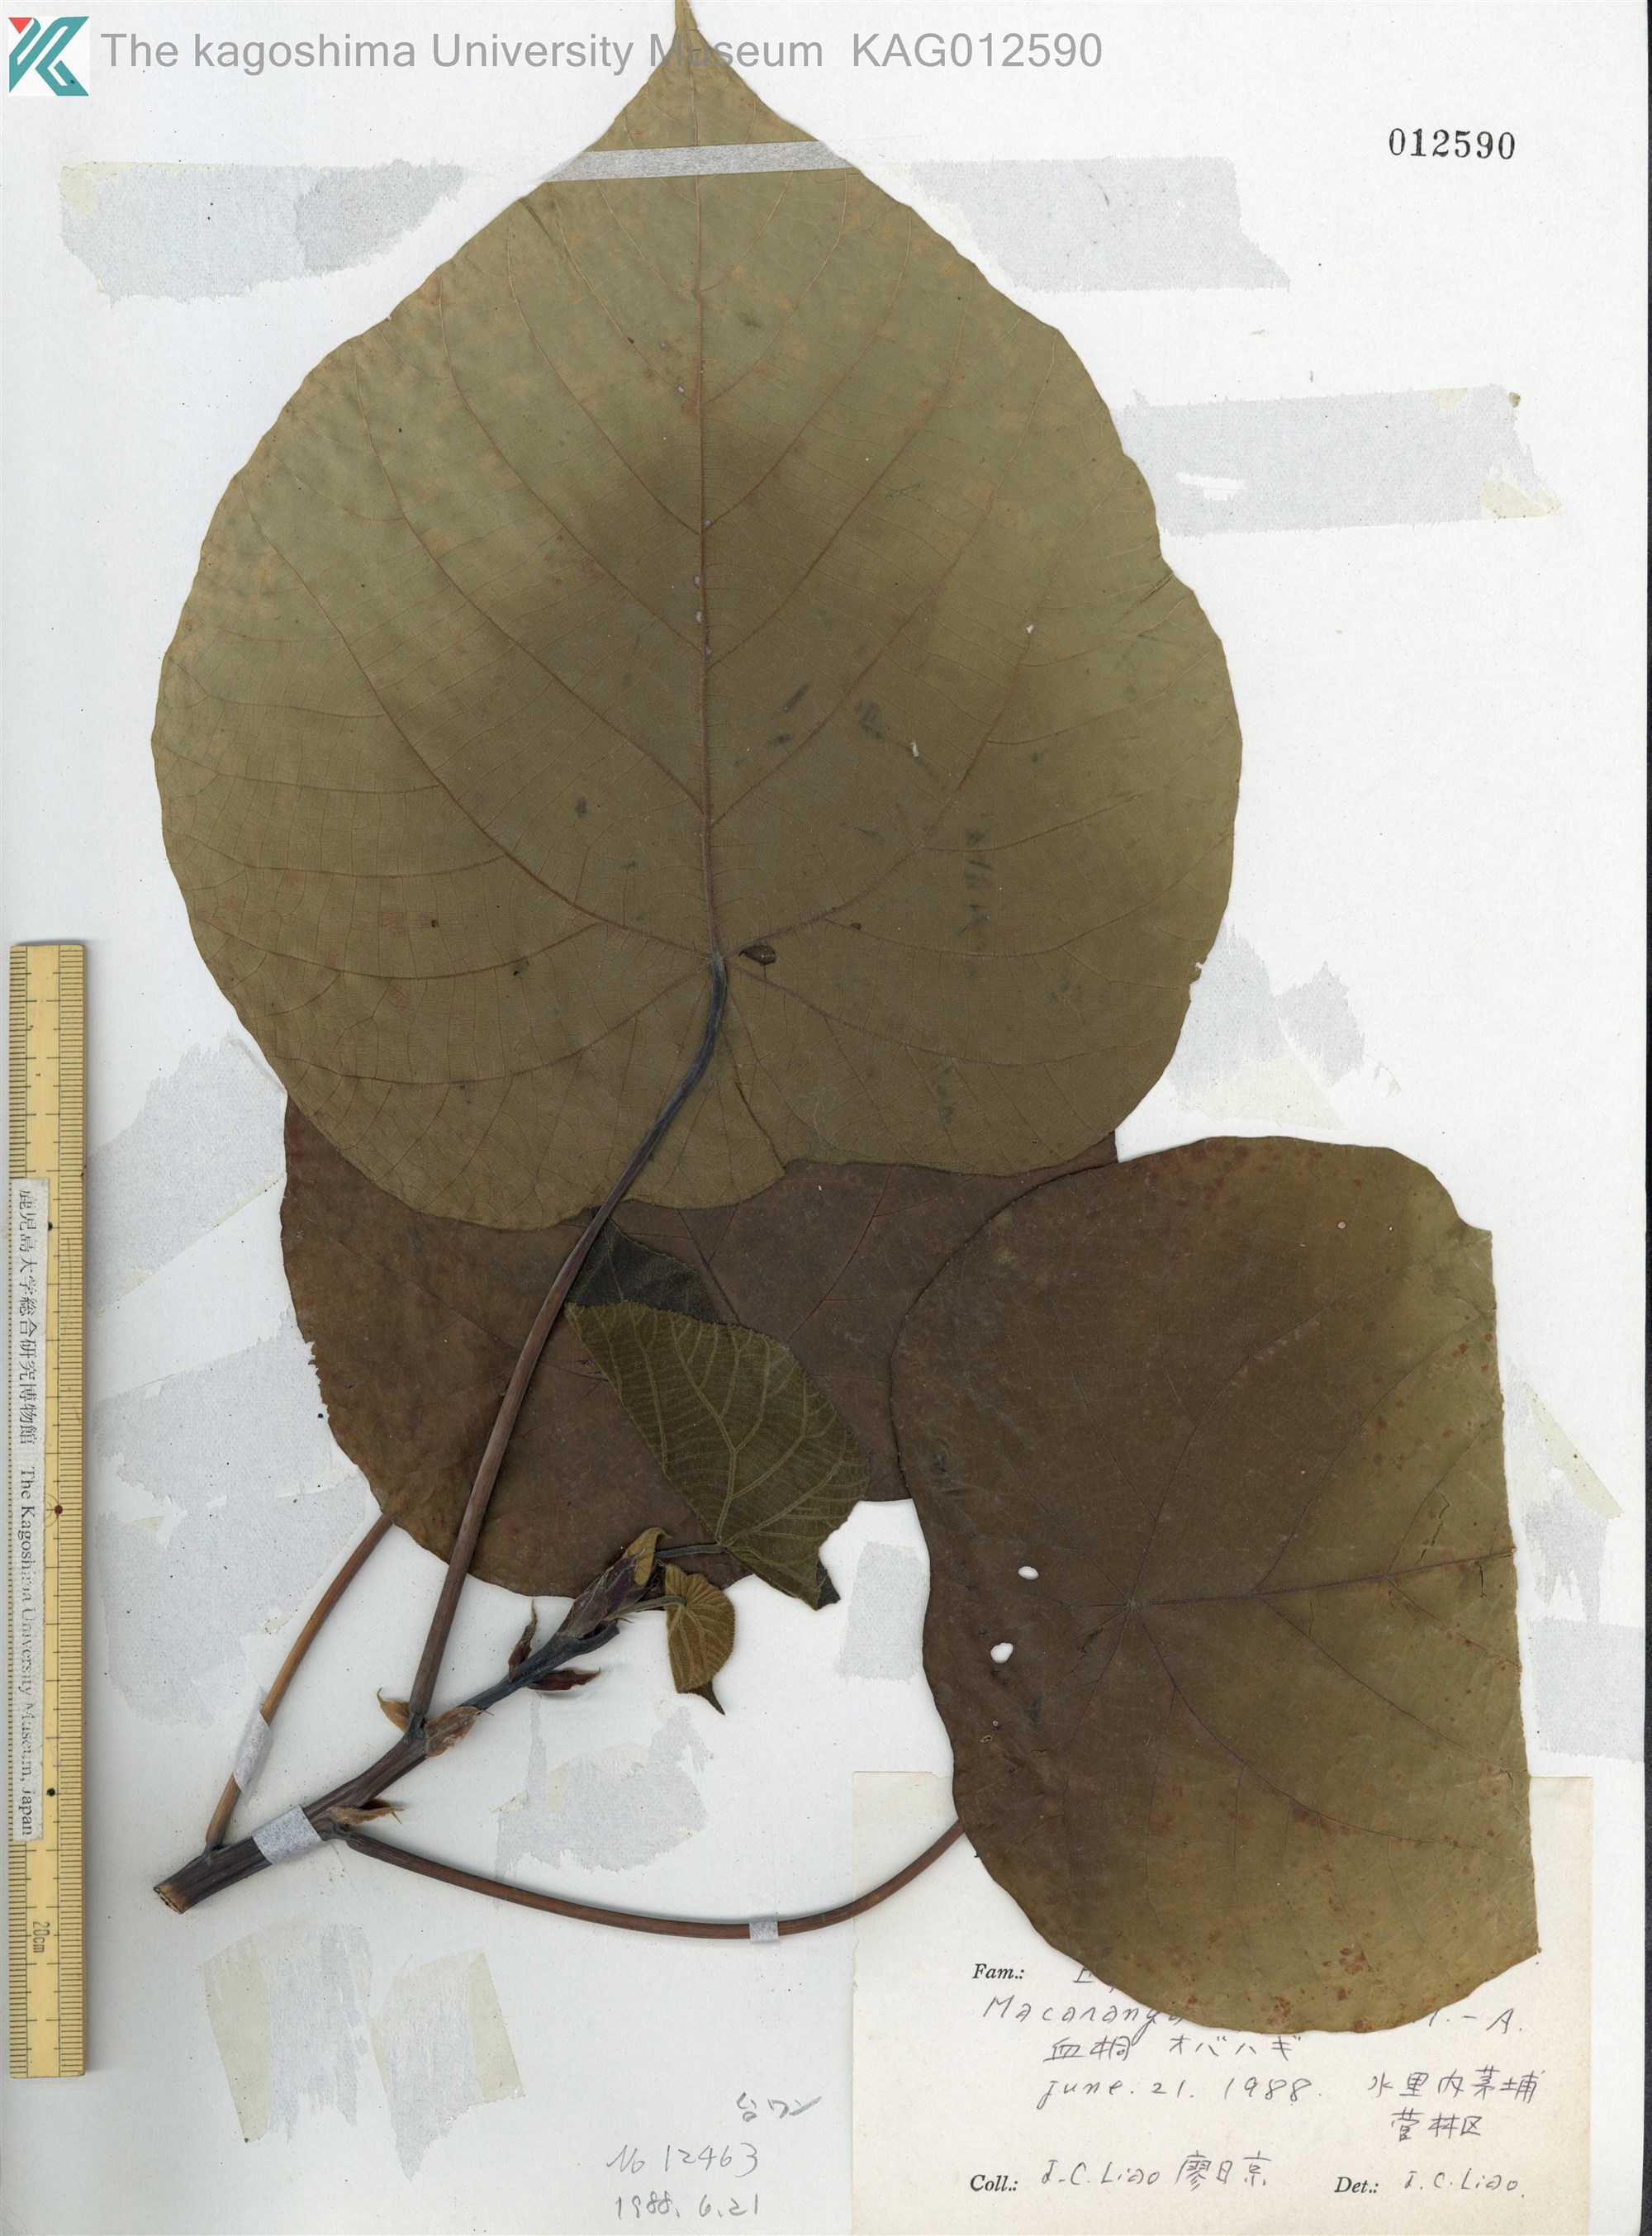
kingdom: Plantae
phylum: Tracheophyta
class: Magnoliopsida
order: Malpighiales
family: Euphorbiaceae
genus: Macaranga
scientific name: Macaranga tanarius
